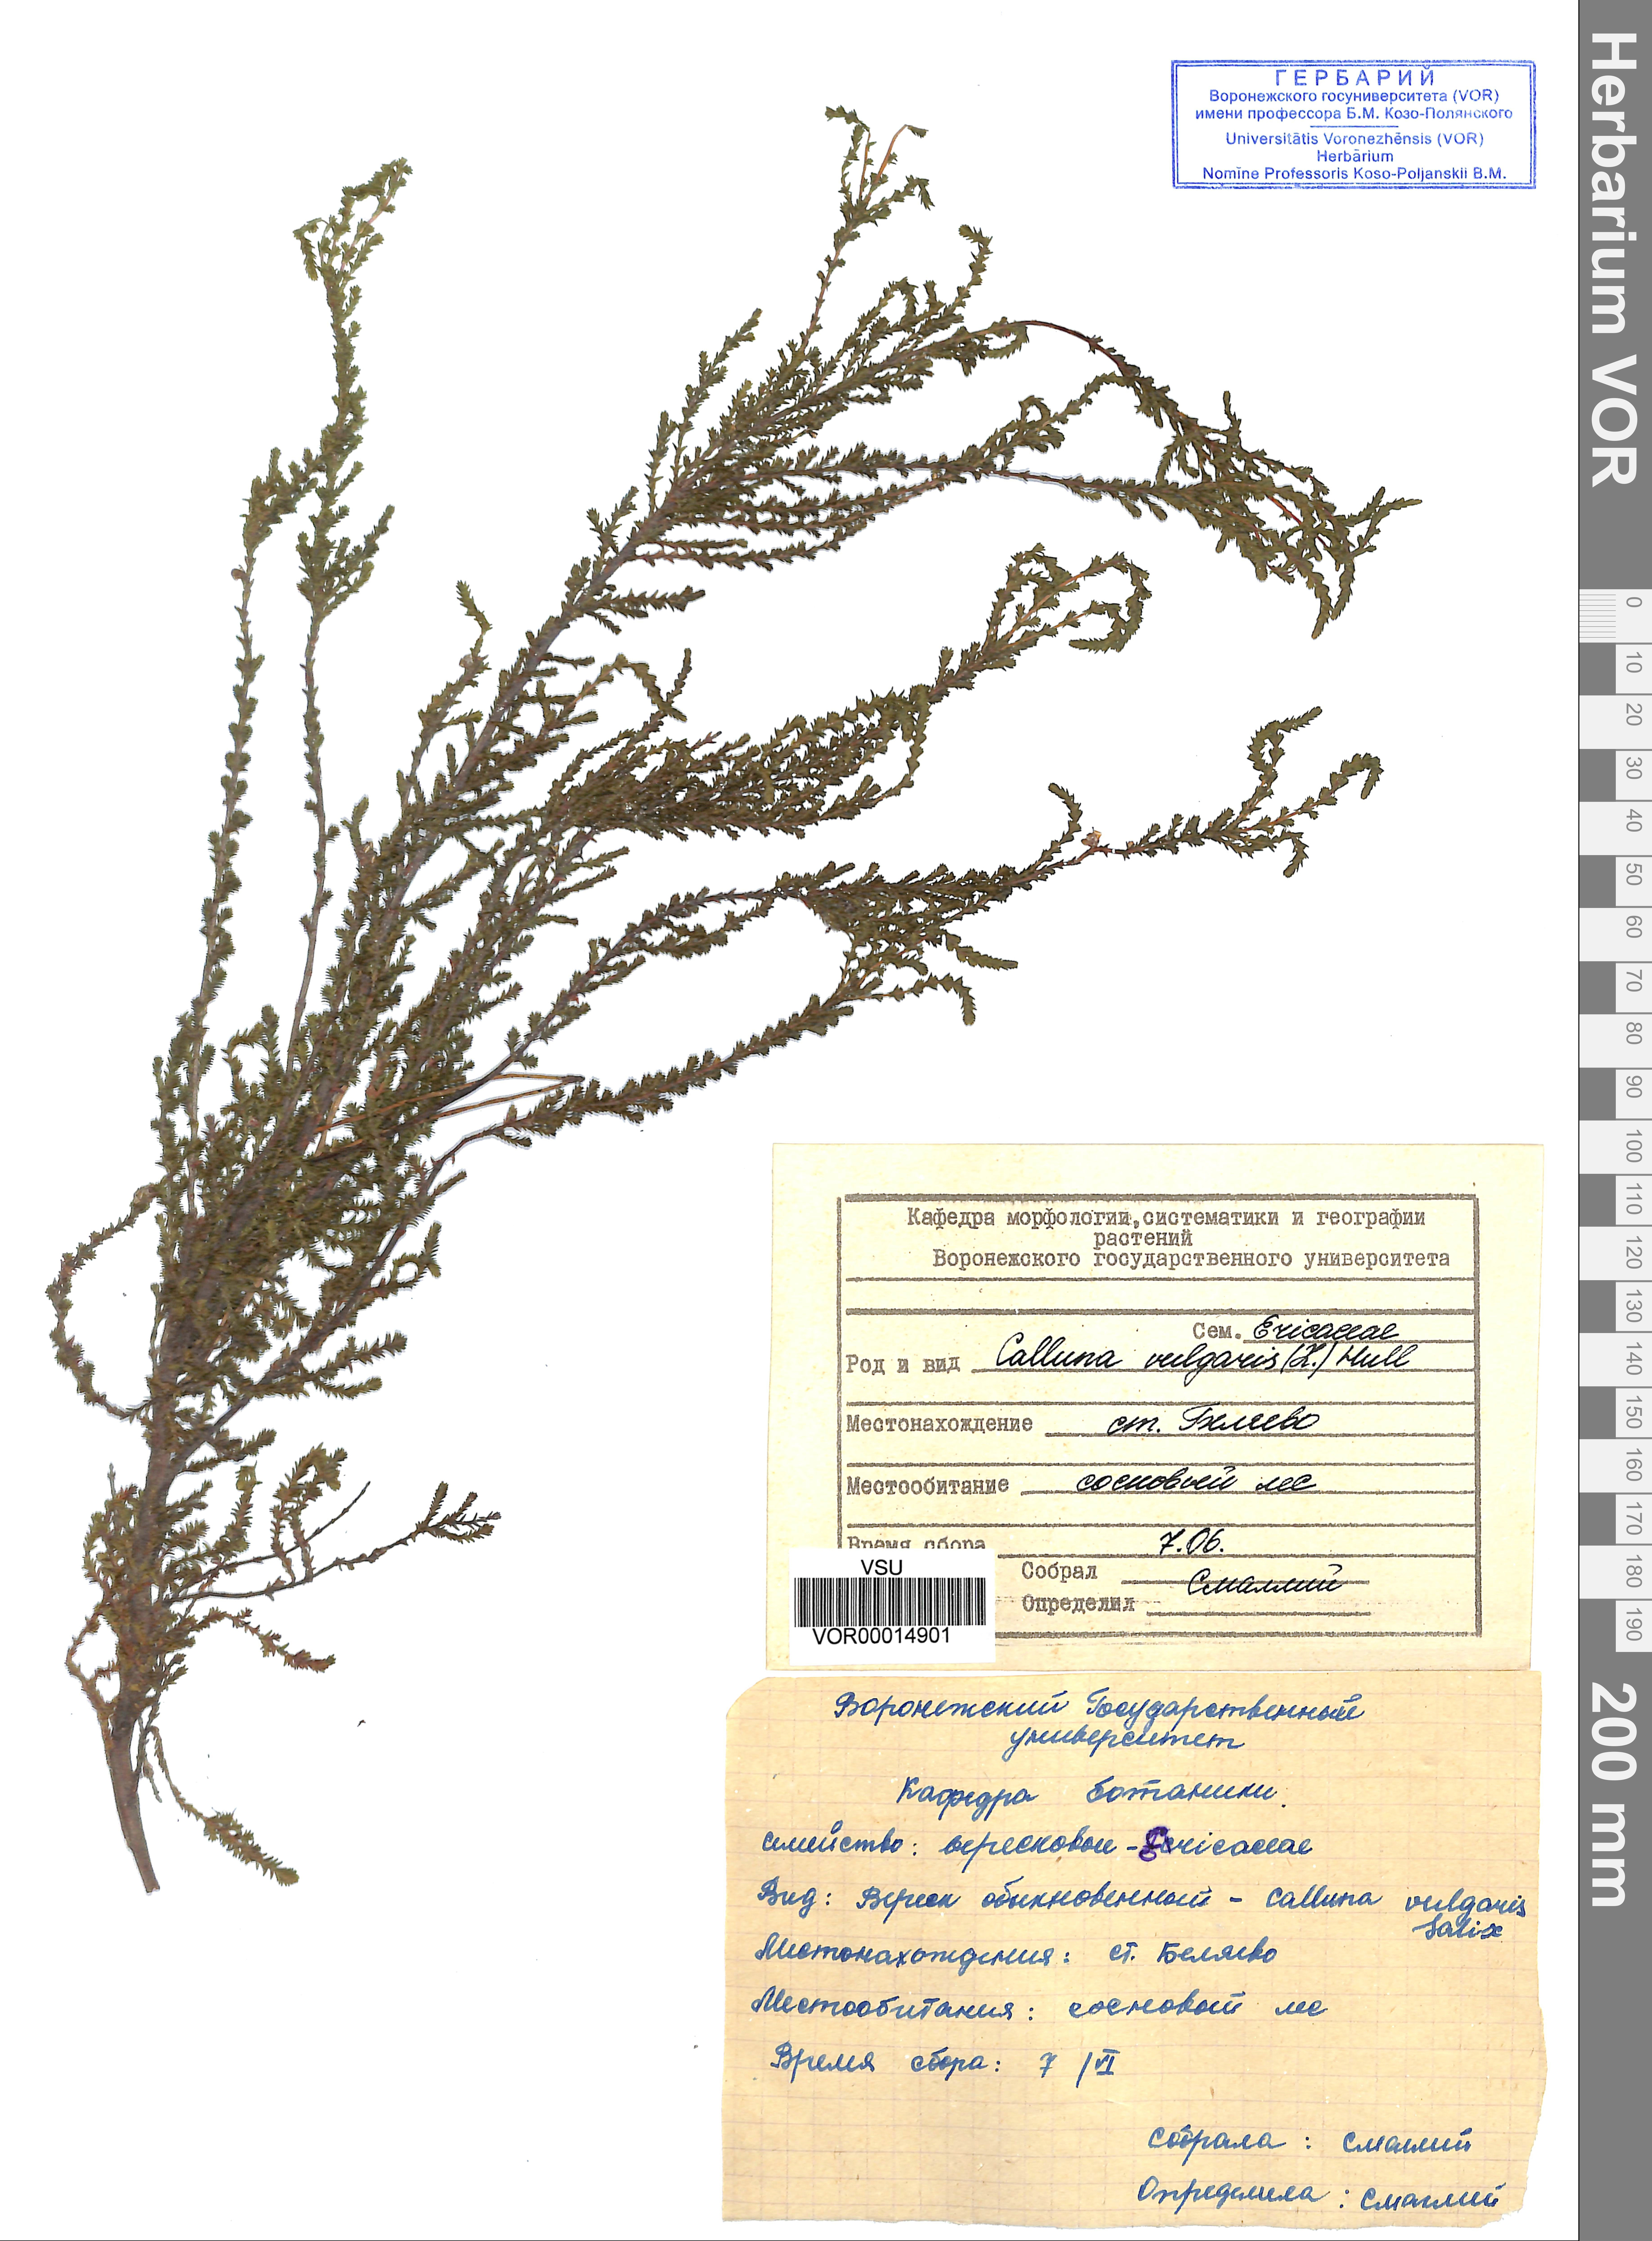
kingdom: Plantae
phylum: Tracheophyta
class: Magnoliopsida
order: Ericales
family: Ericaceae
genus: Calluna
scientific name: Calluna vulgaris
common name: Heather
